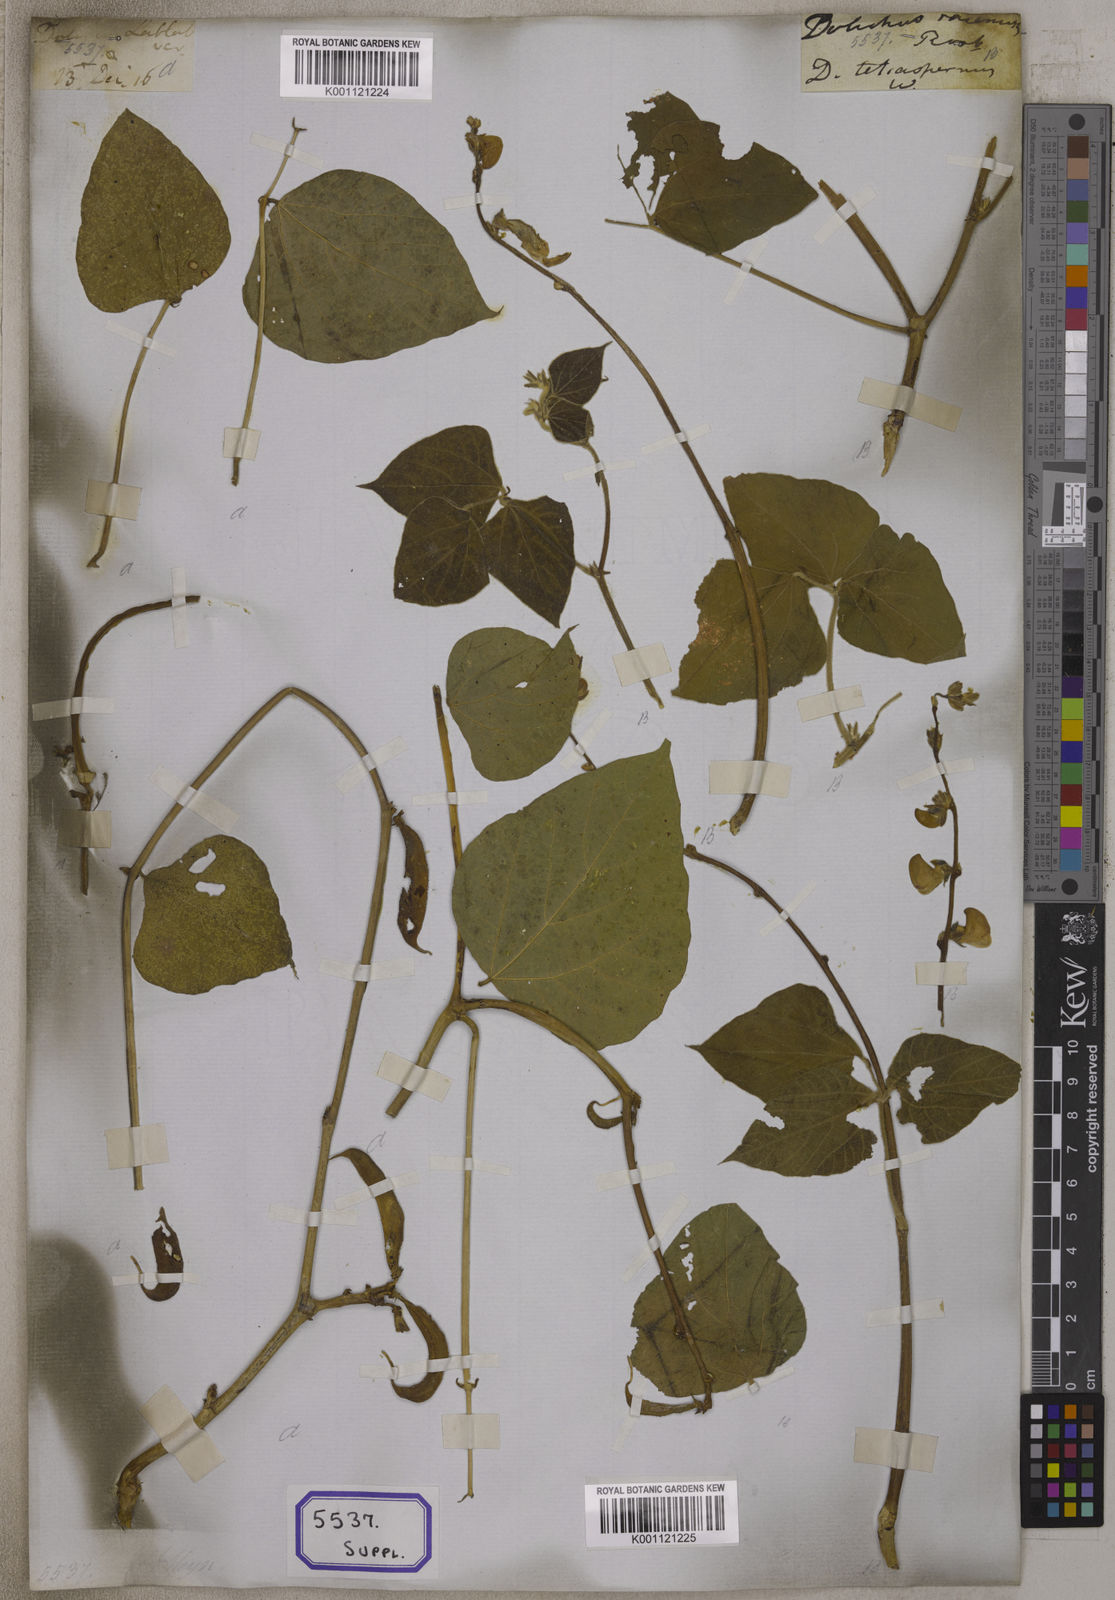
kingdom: Plantae
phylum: Tracheophyta
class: Magnoliopsida
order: Fabales
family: Fabaceae
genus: Lablab
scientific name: Lablab purpureus
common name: Lablab-bean
